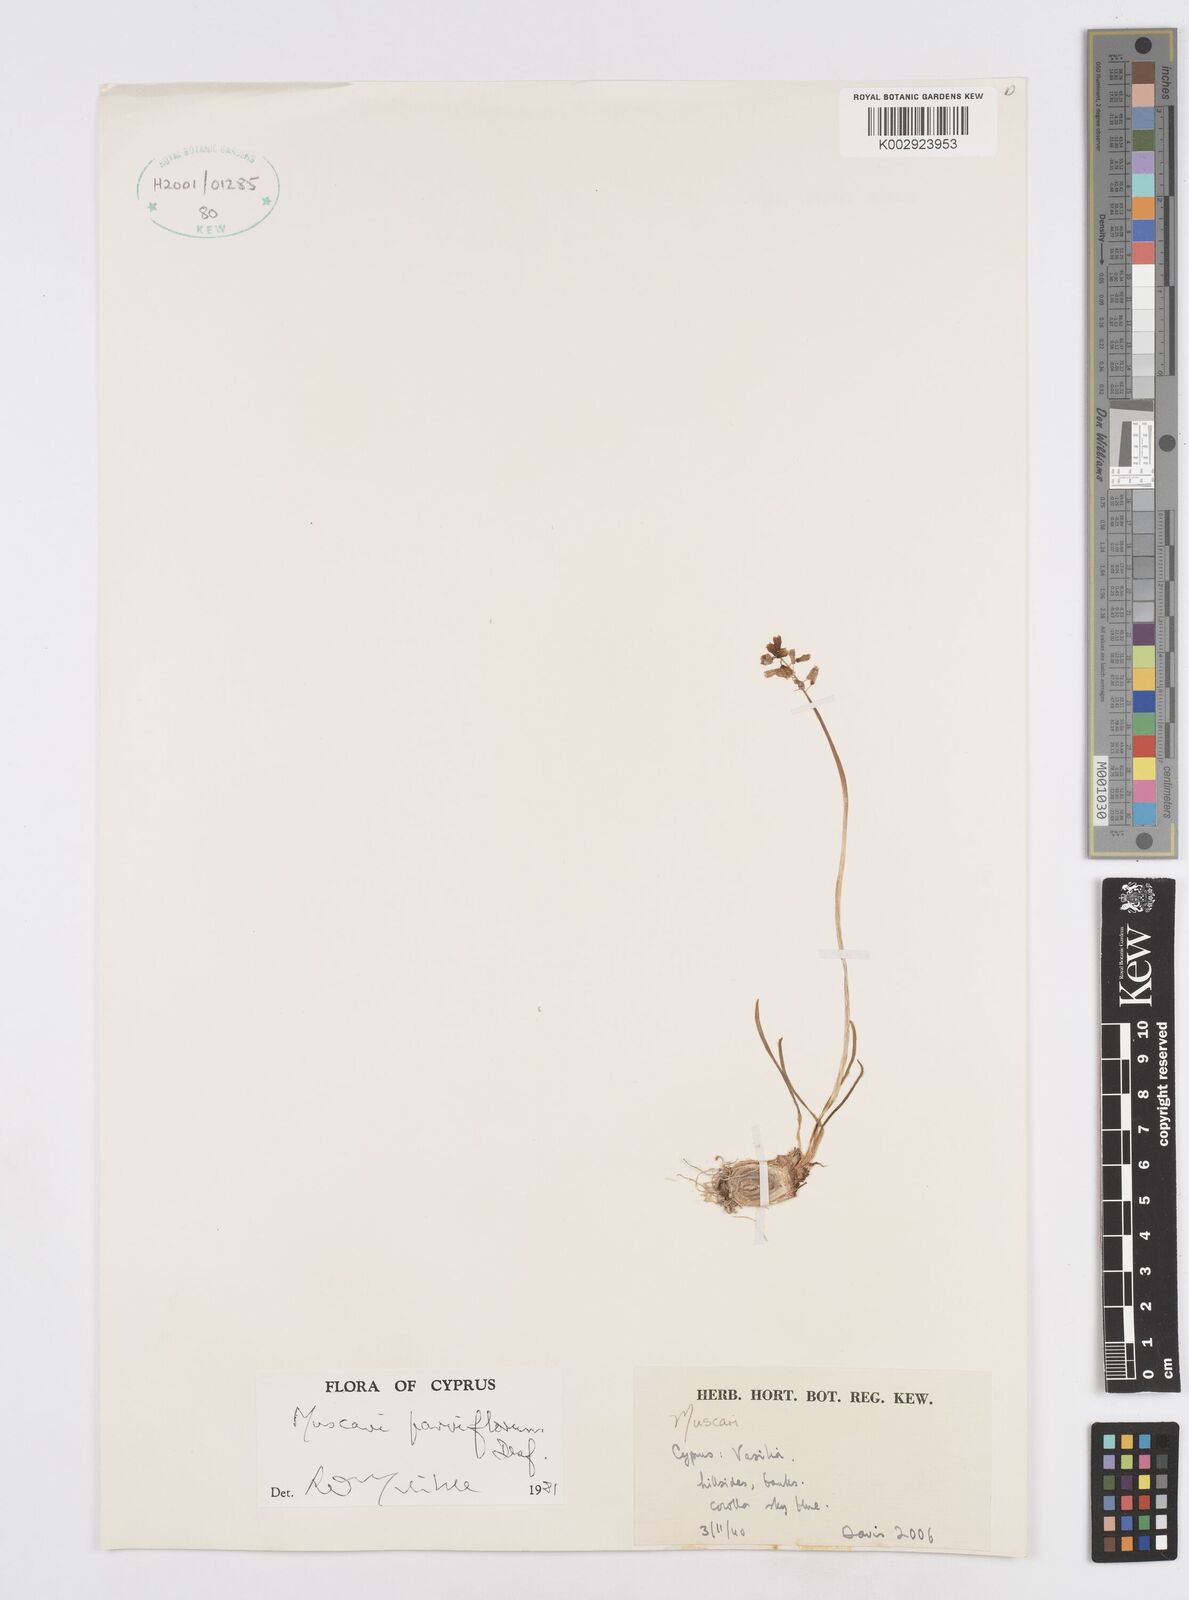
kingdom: Plantae
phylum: Tracheophyta
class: Liliopsida
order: Asparagales
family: Asparagaceae
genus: Muscari
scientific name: Muscari parviflorum
